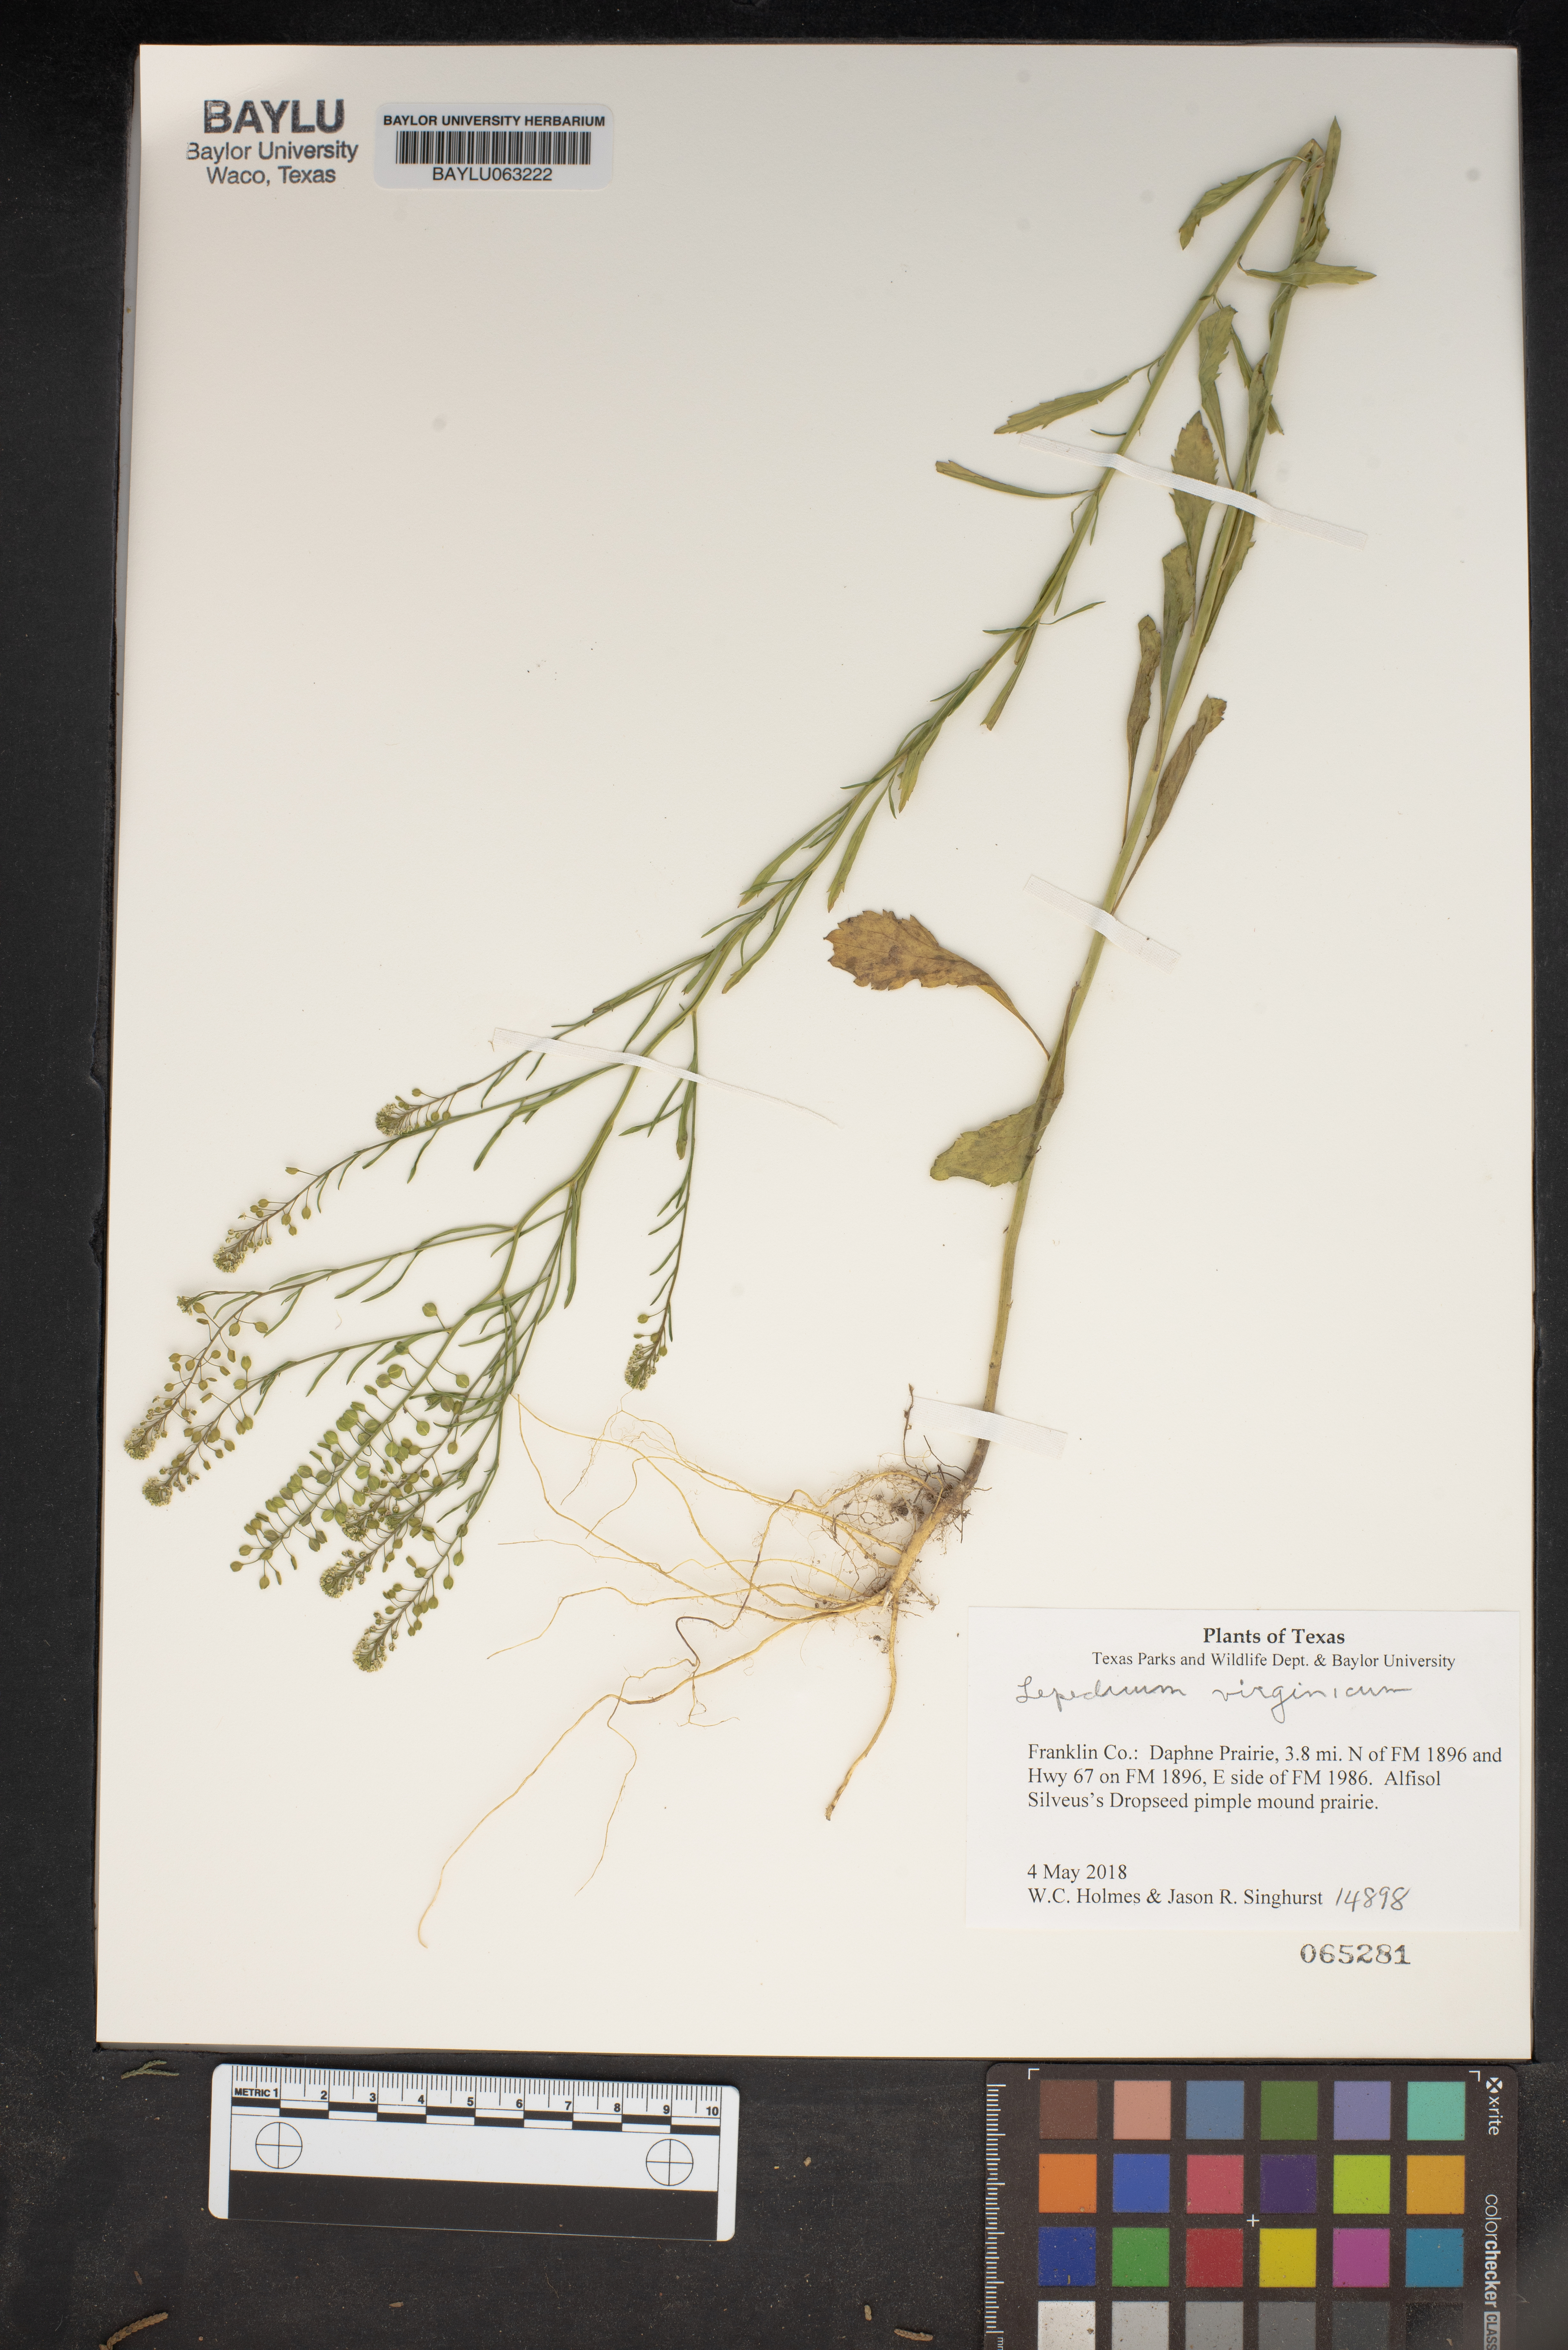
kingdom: Plantae
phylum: Tracheophyta
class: Magnoliopsida
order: Brassicales
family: Brassicaceae
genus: Lepidium
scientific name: Lepidium virginicum
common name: Least pepperwort
